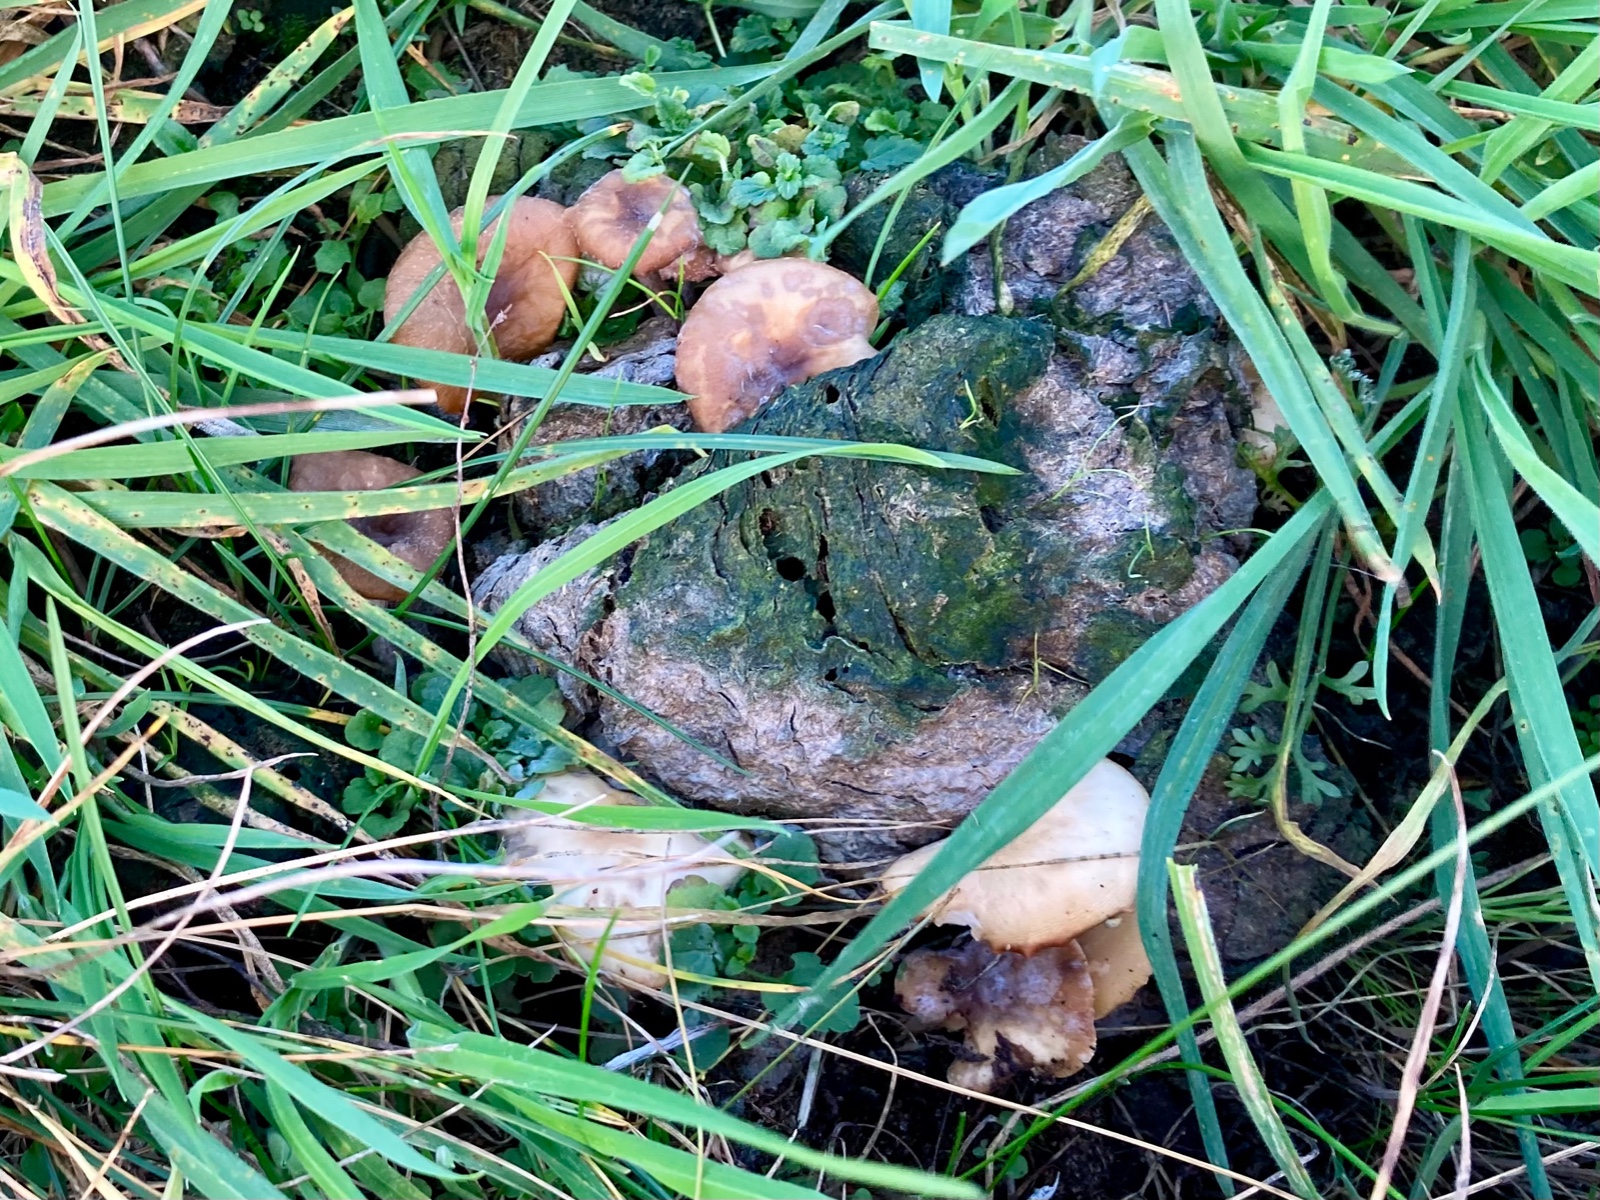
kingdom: Fungi
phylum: Basidiomycota
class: Agaricomycetes
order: Agaricales
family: Tricholomataceae
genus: Clitocybe
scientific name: Clitocybe amarescens
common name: gødnings-tragthat
